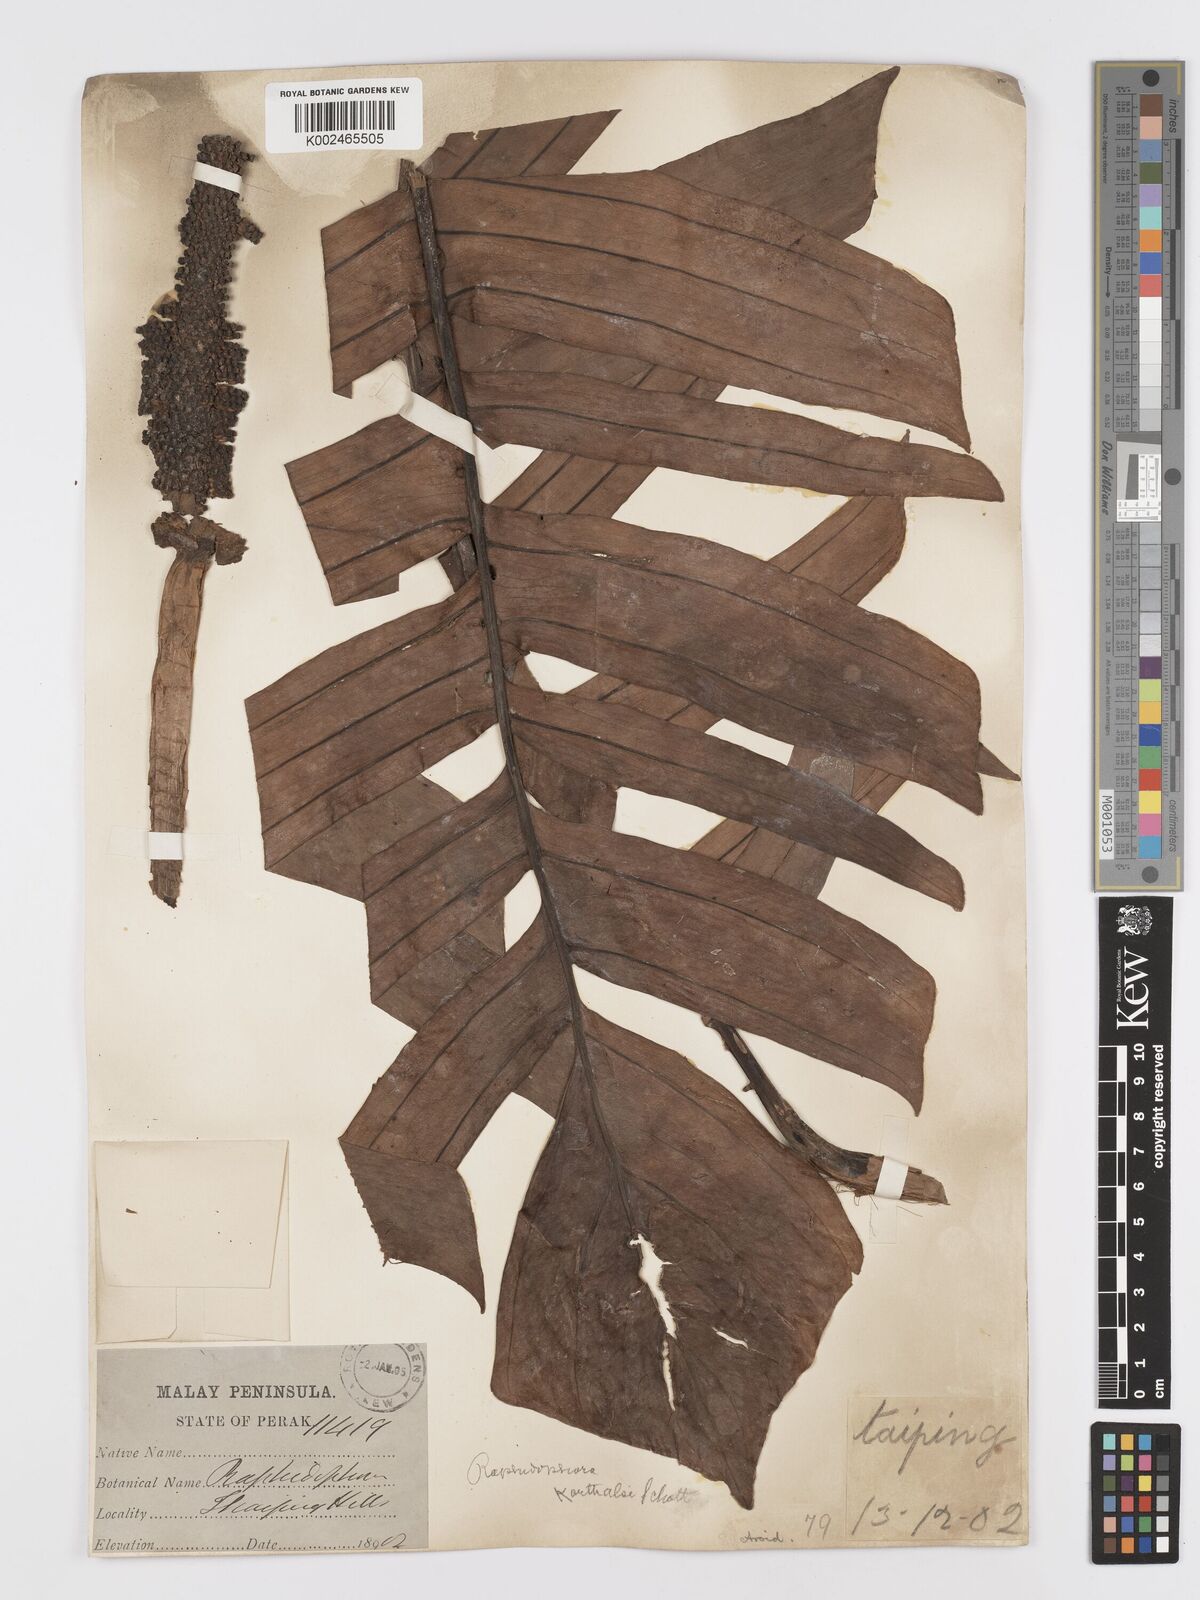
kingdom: Plantae
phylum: Tracheophyta
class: Liliopsida
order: Alismatales
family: Araceae
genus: Rhaphidophora
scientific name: Rhaphidophora korthalsii
